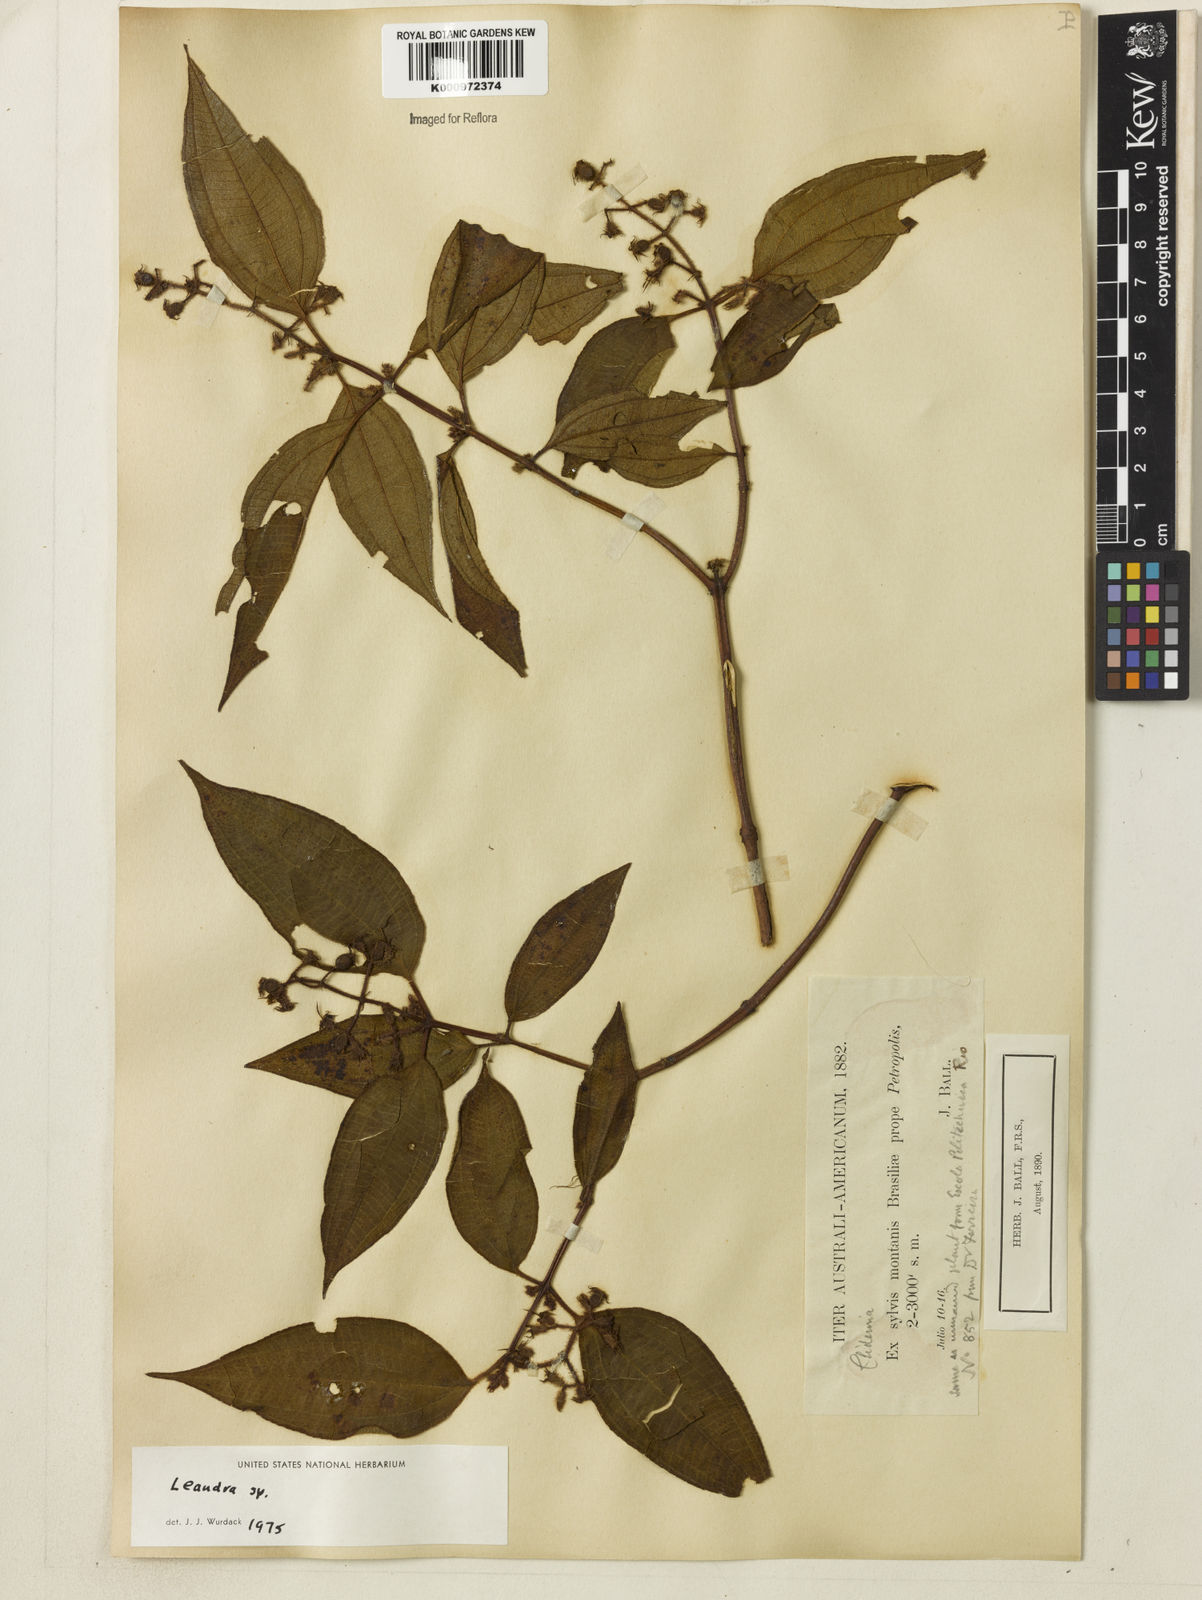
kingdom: Plantae
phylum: Tracheophyta
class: Magnoliopsida
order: Myrtales
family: Melastomataceae
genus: Miconia
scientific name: Miconia
